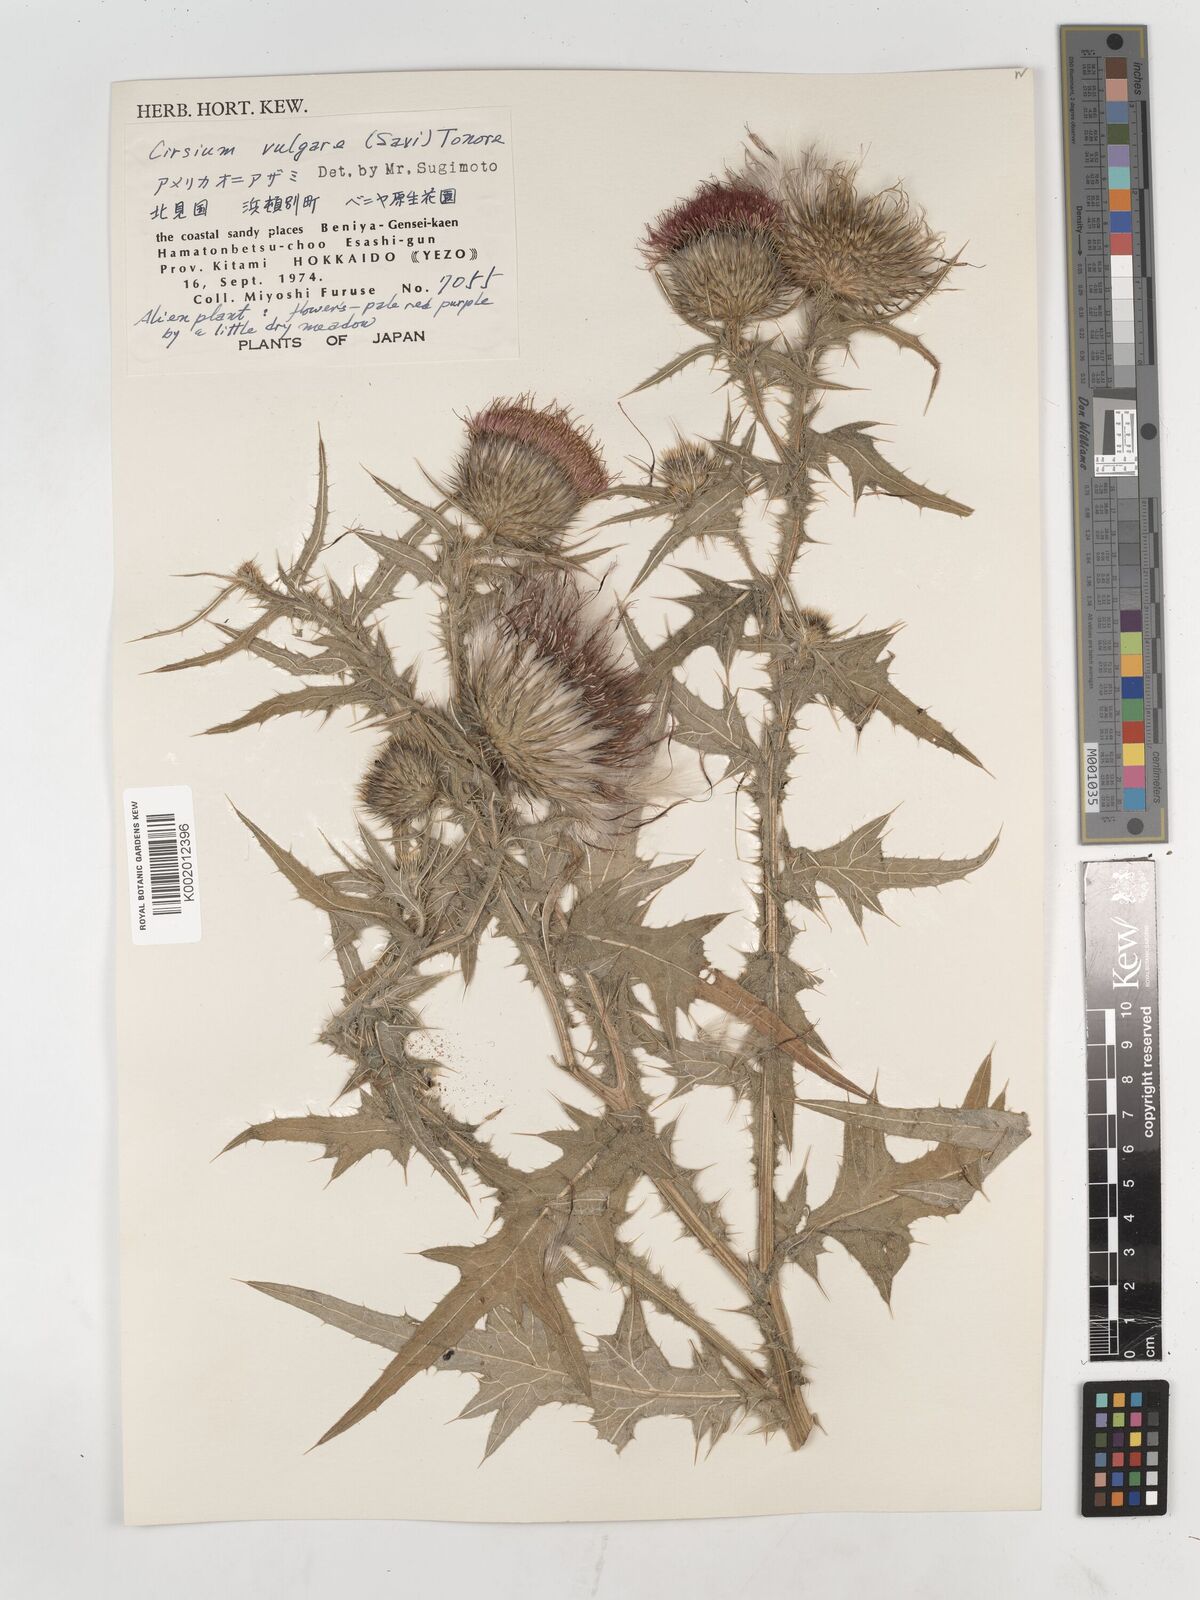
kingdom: Plantae
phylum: Tracheophyta
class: Magnoliopsida
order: Asterales
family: Asteraceae
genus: Cirsium
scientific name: Cirsium vulgare
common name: Bull thistle
